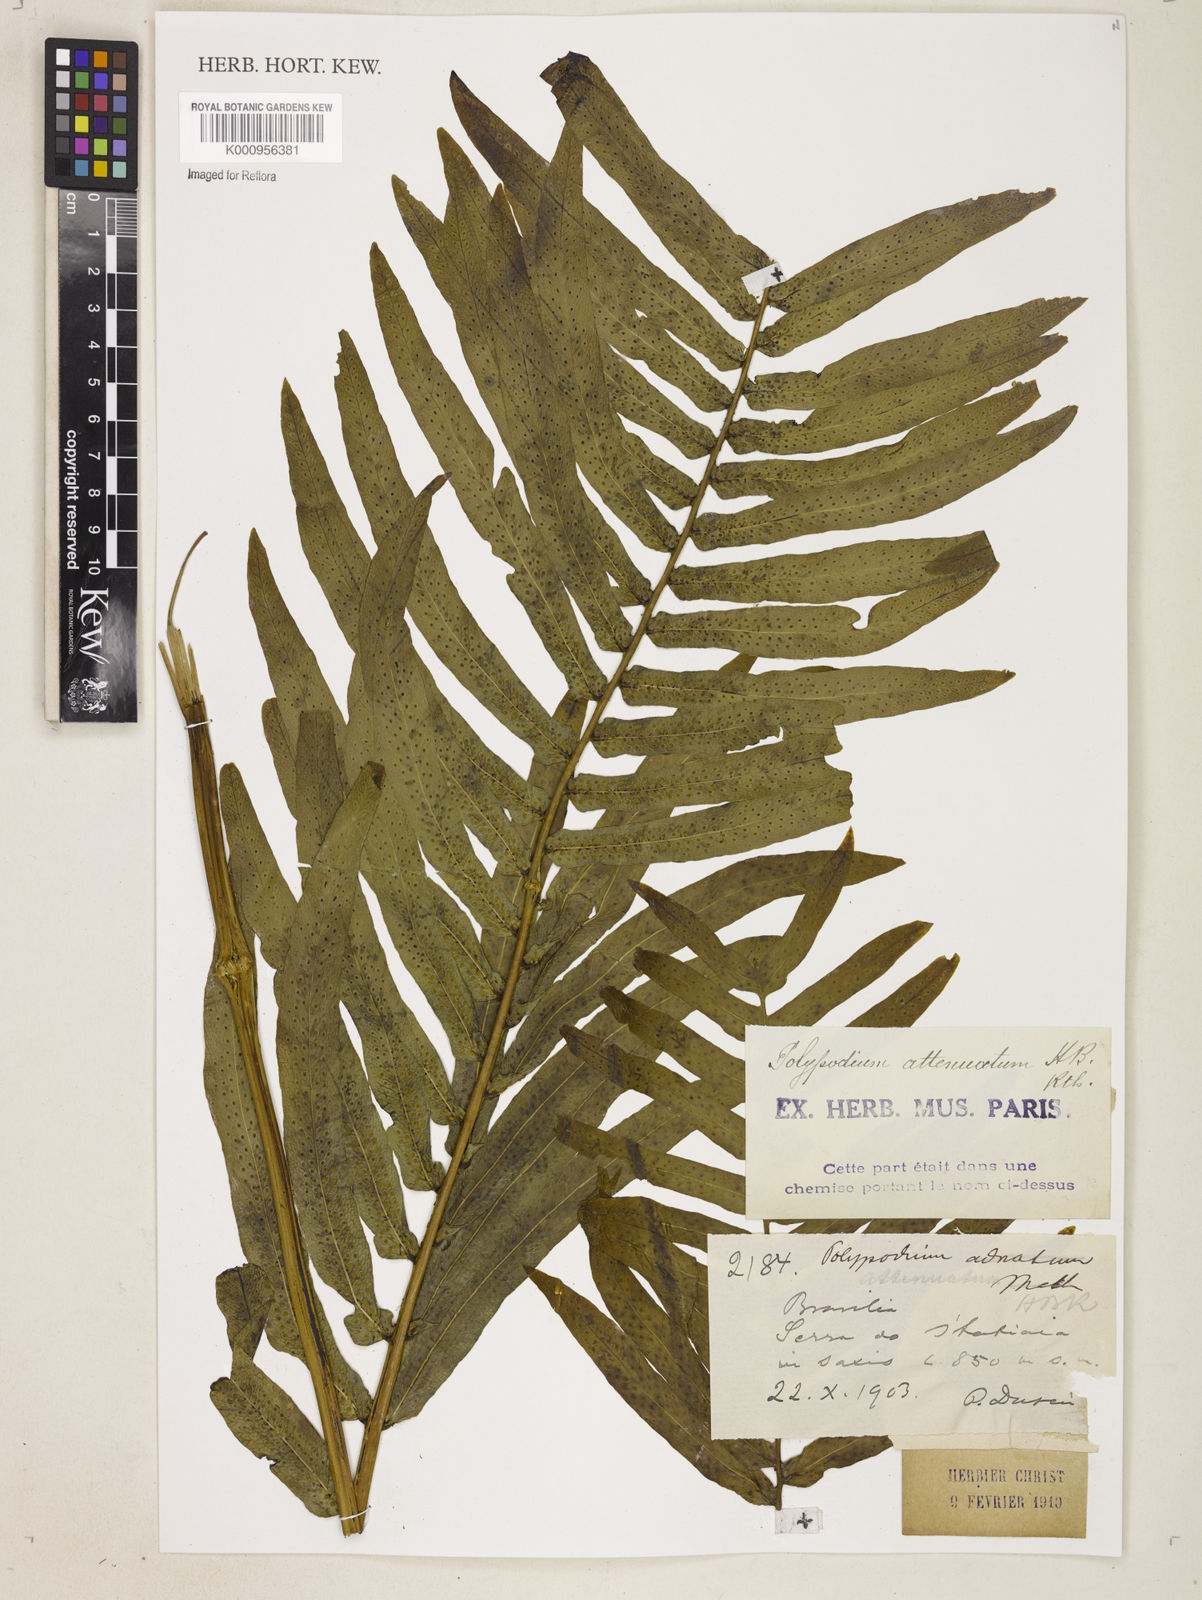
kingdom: Plantae
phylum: Tracheophyta
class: Polypodiopsida
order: Polypodiales
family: Polypodiaceae
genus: Serpocaulon
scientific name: Serpocaulon triseriale
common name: Angle-vein fern
